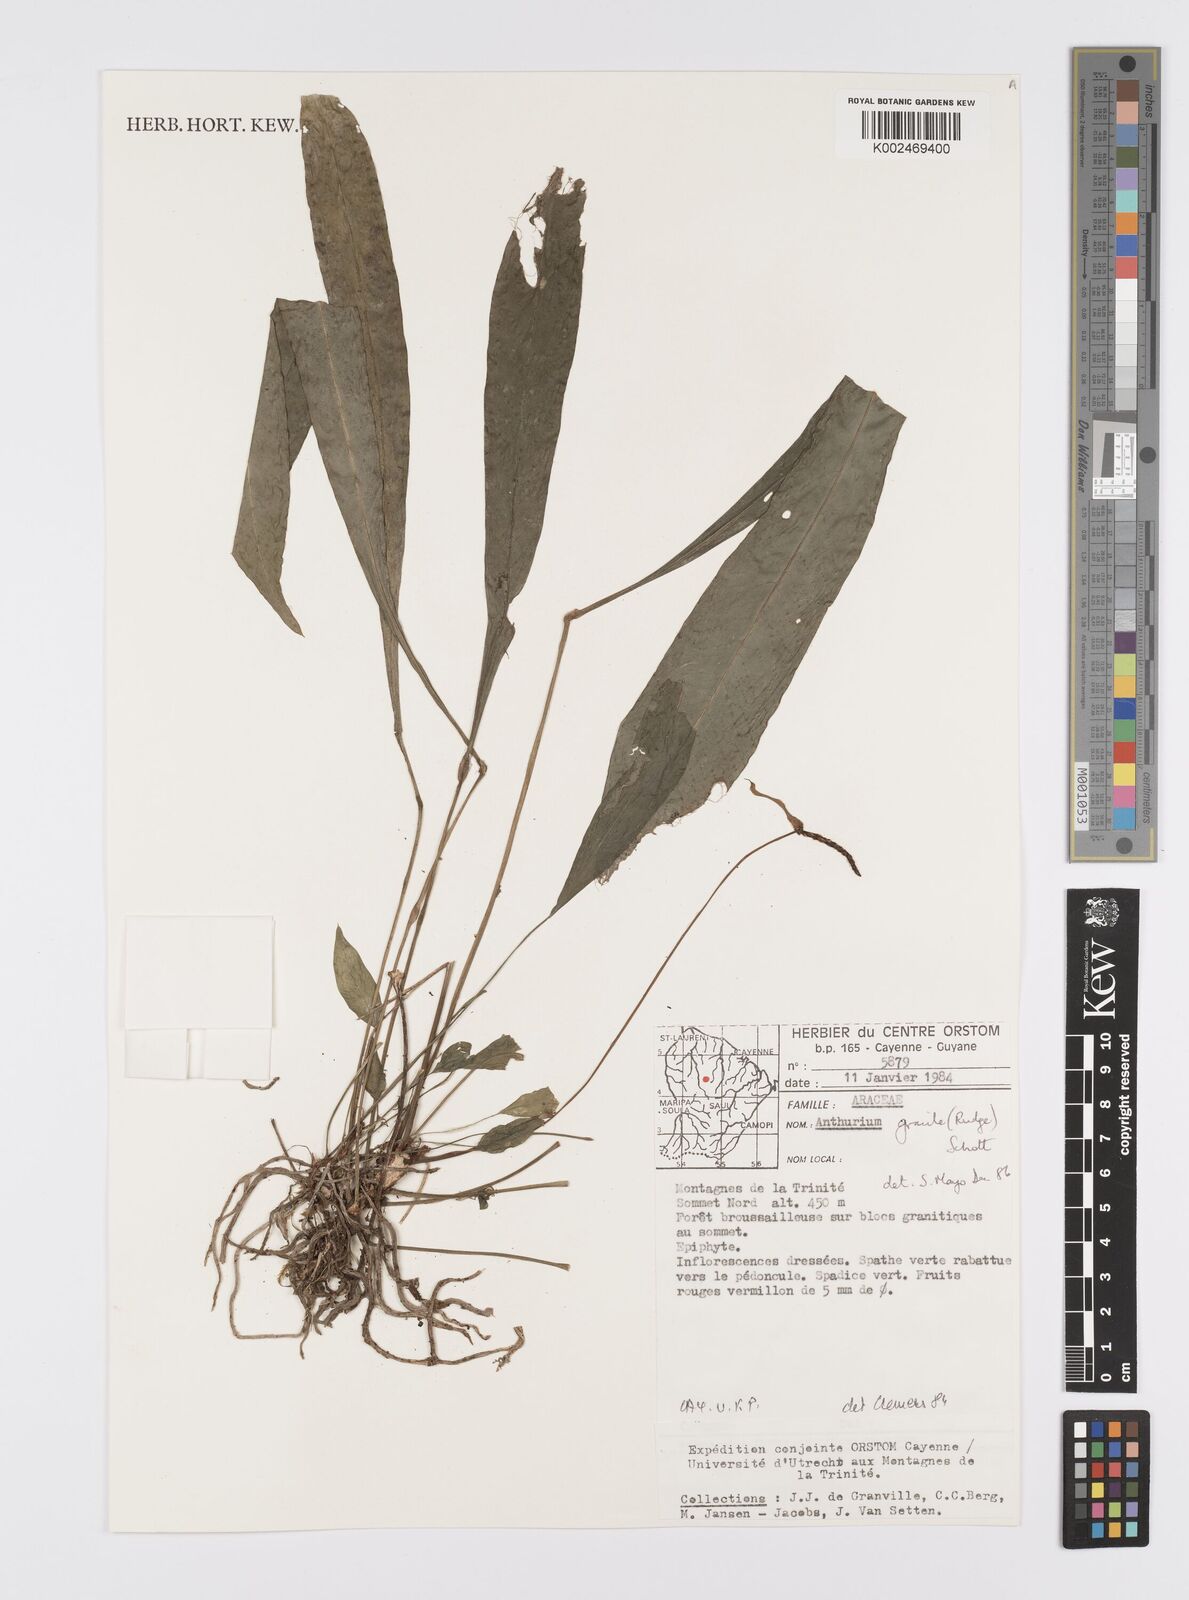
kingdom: Plantae
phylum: Tracheophyta
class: Liliopsida
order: Alismatales
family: Araceae
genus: Anthurium
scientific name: Anthurium gracile
